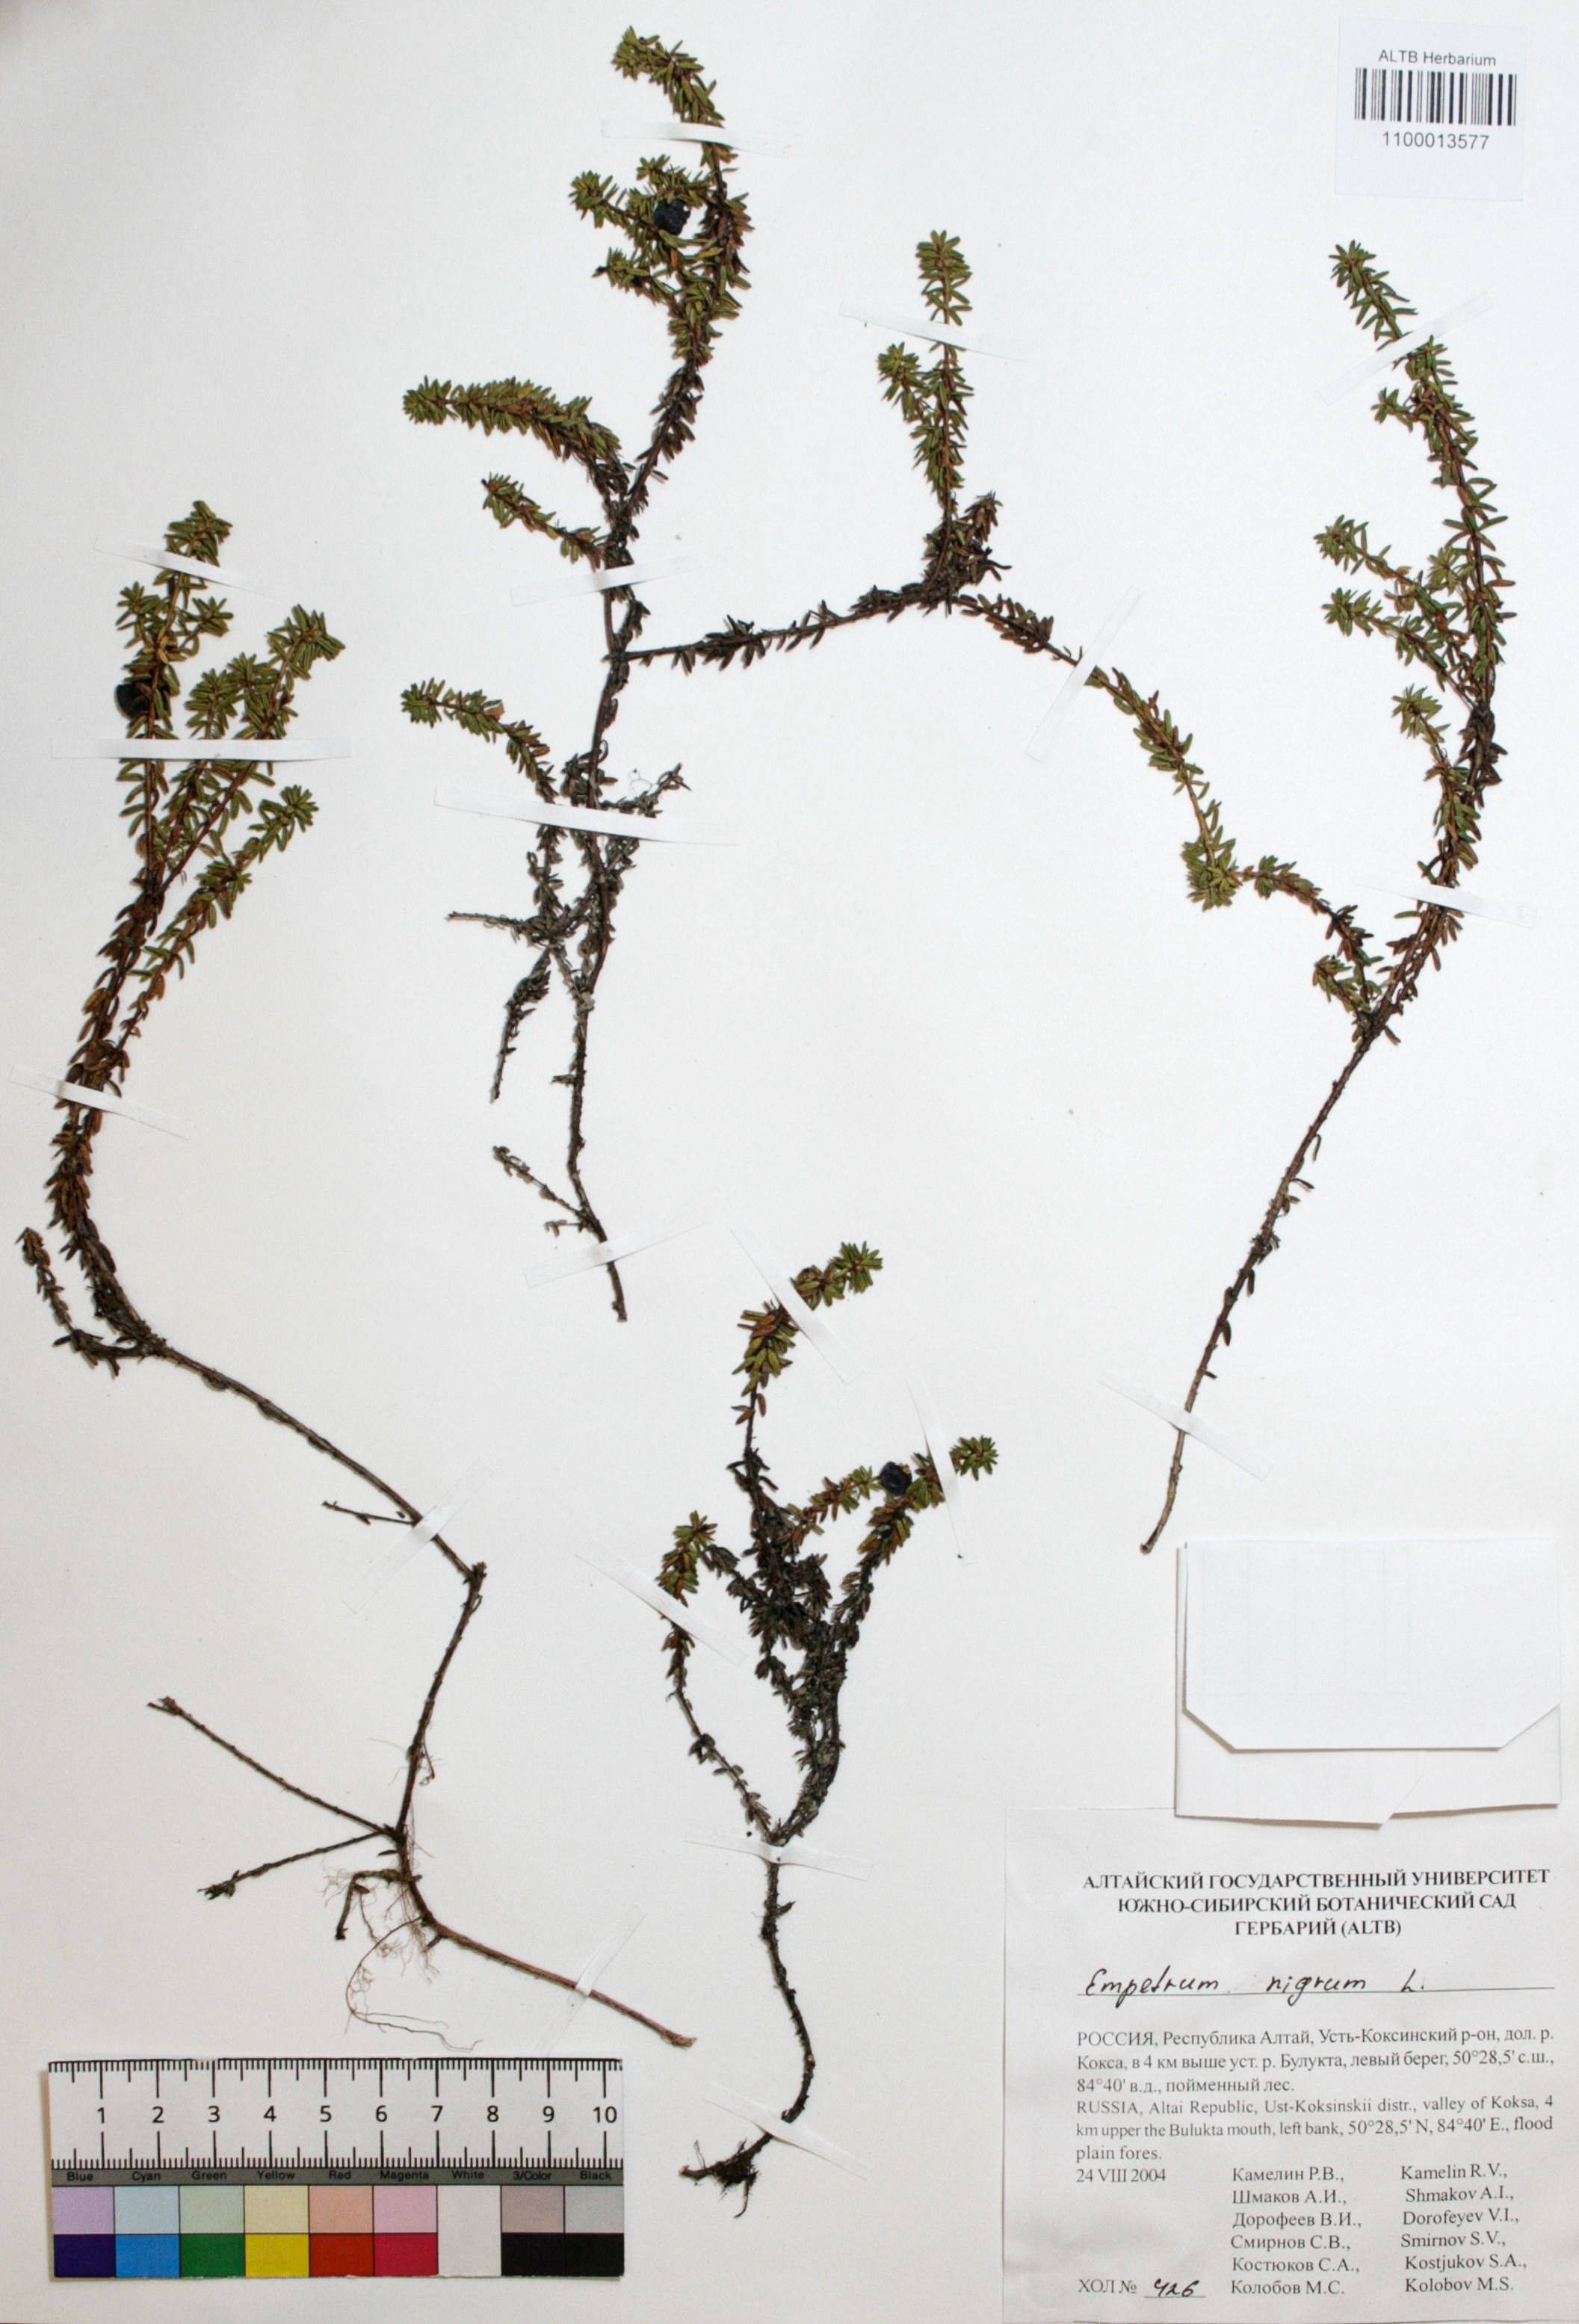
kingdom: Plantae
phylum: Tracheophyta
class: Magnoliopsida
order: Ericales
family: Ericaceae
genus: Empetrum
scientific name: Empetrum nigrum
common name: Black crowberry
